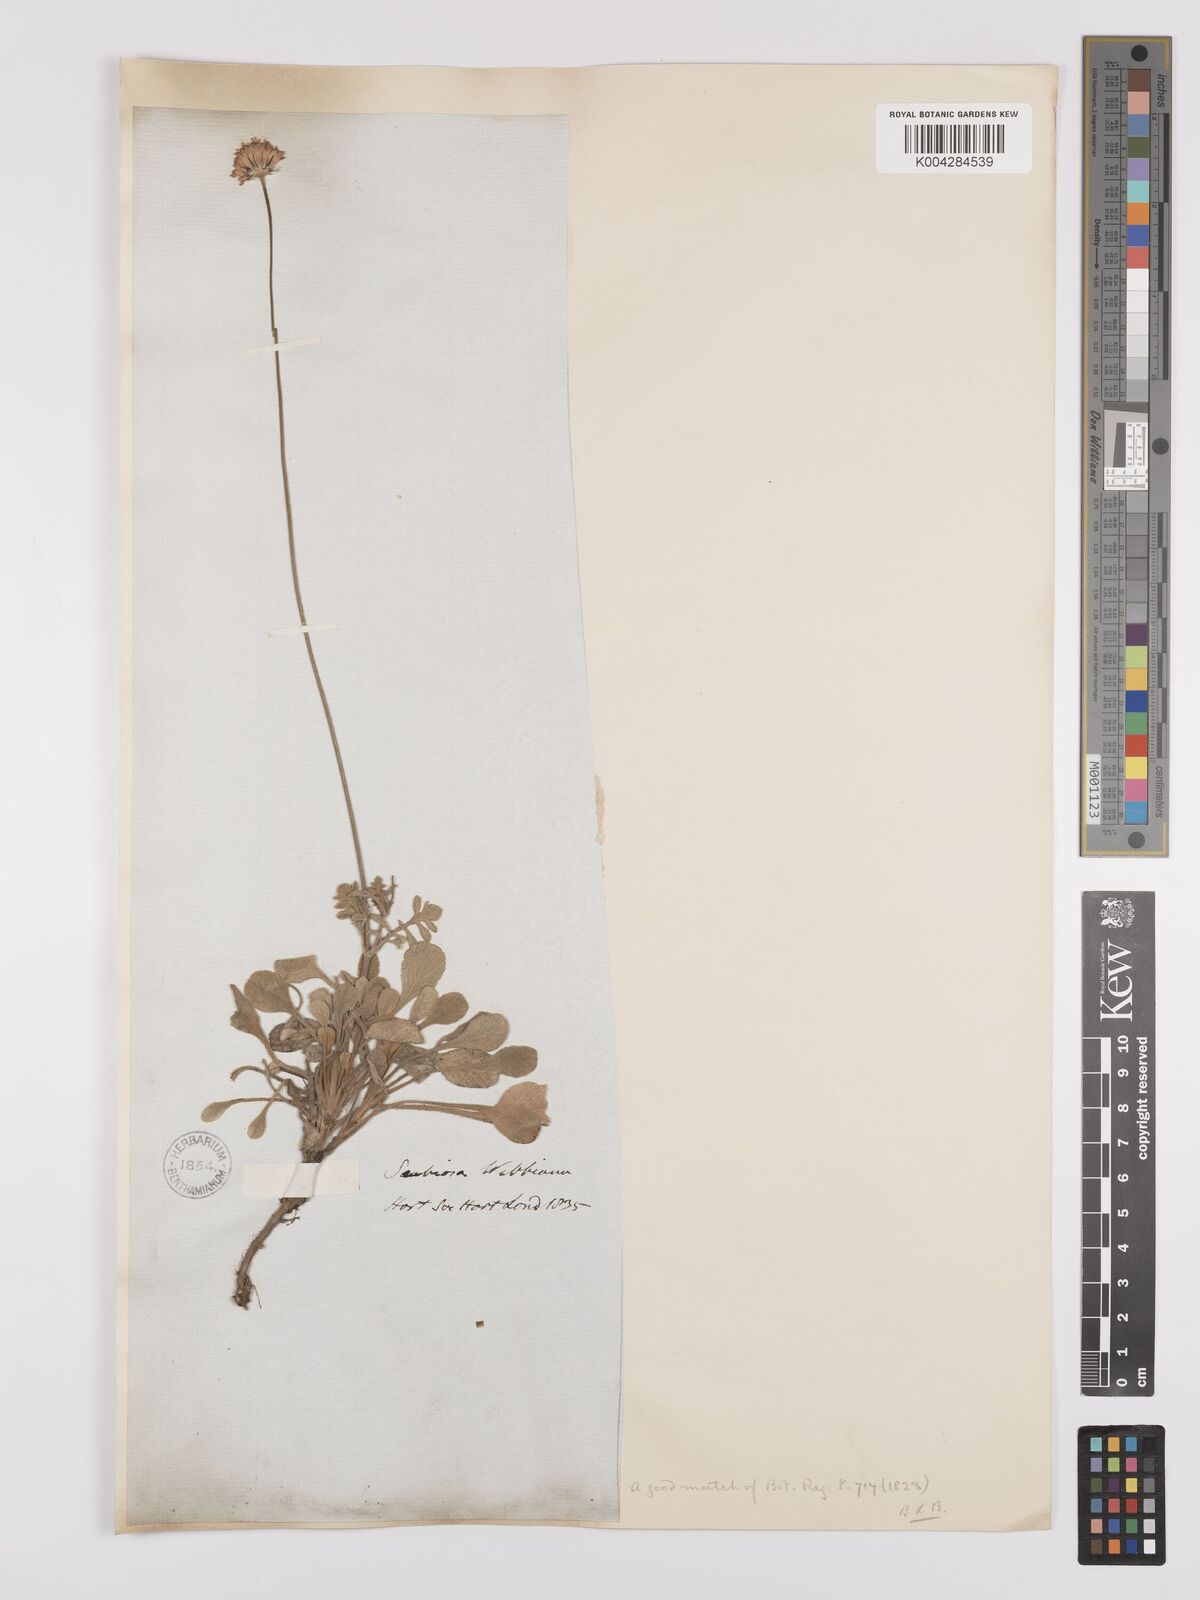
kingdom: Plantae
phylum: Tracheophyta
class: Magnoliopsida
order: Dipsacales
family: Caprifoliaceae
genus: Scabiosa
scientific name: Scabiosa webbiana
